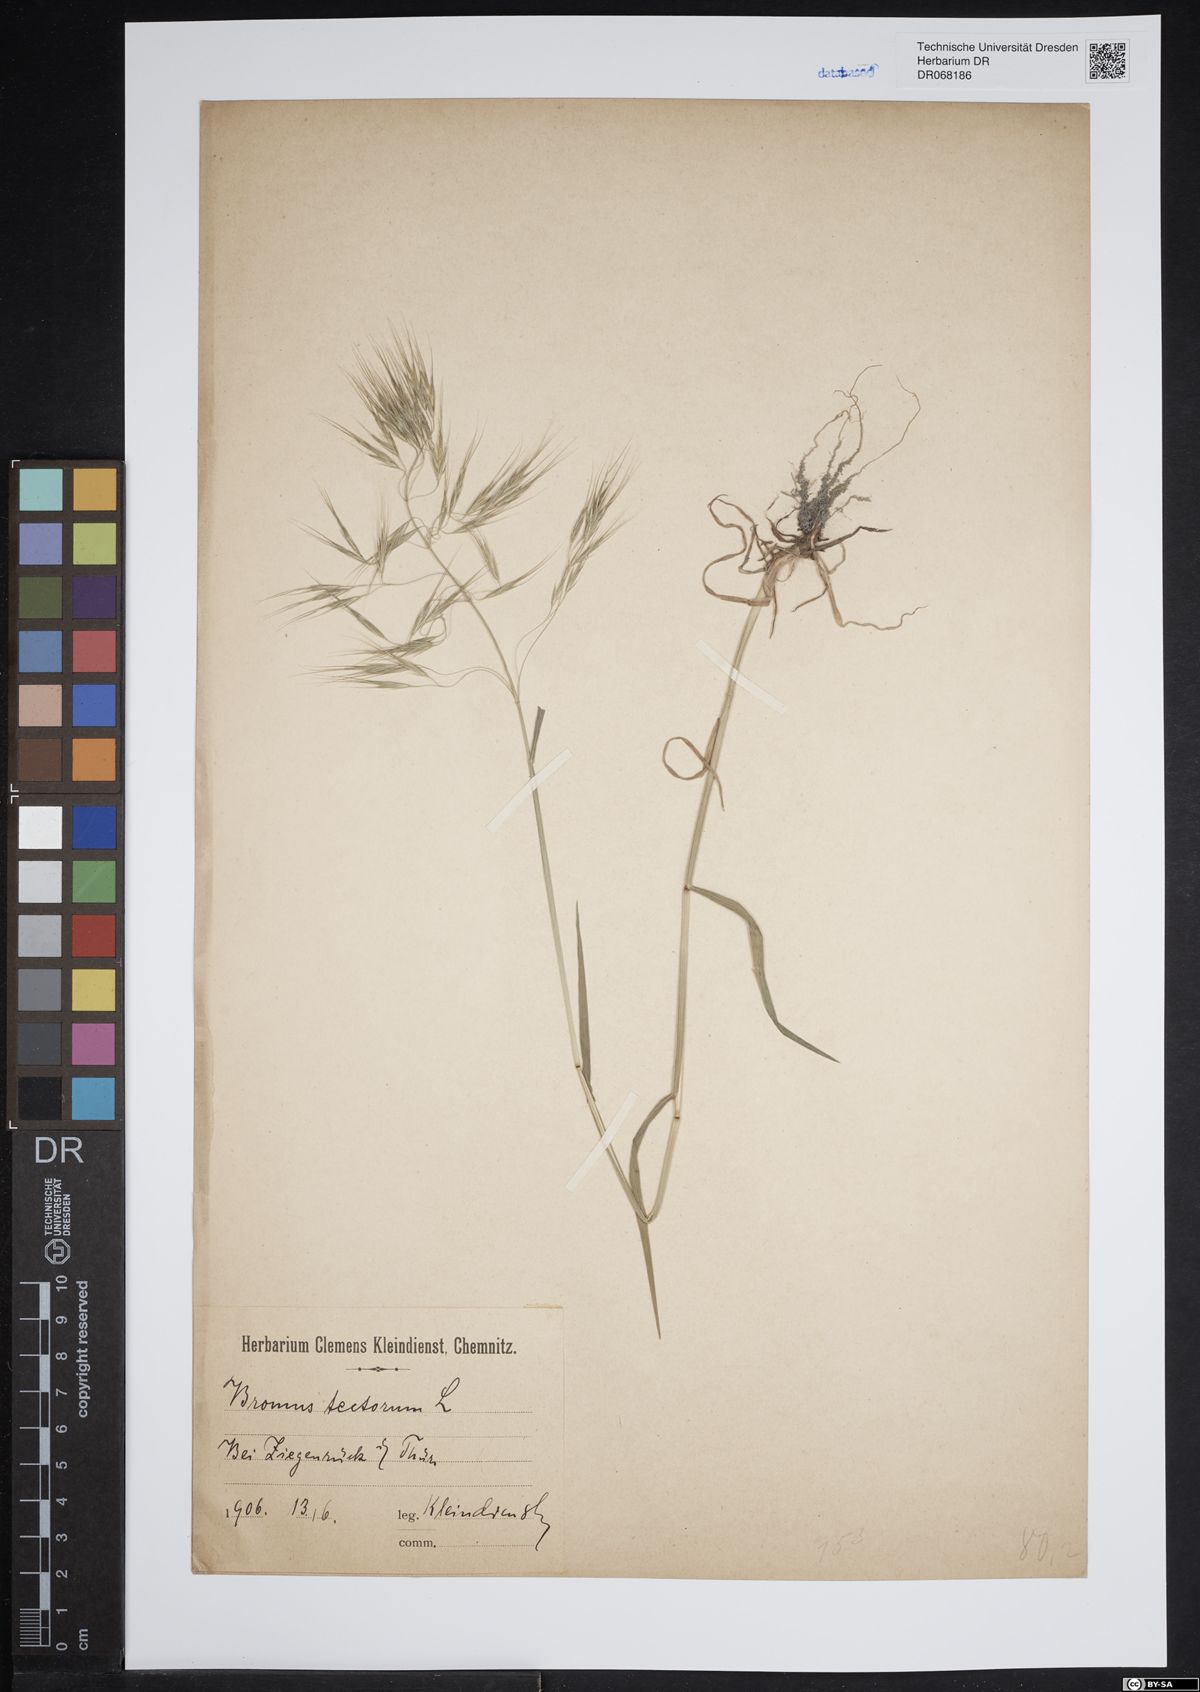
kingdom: Plantae
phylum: Tracheophyta
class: Liliopsida
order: Poales
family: Poaceae
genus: Bromus
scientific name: Bromus tectorum
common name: Cheatgrass
